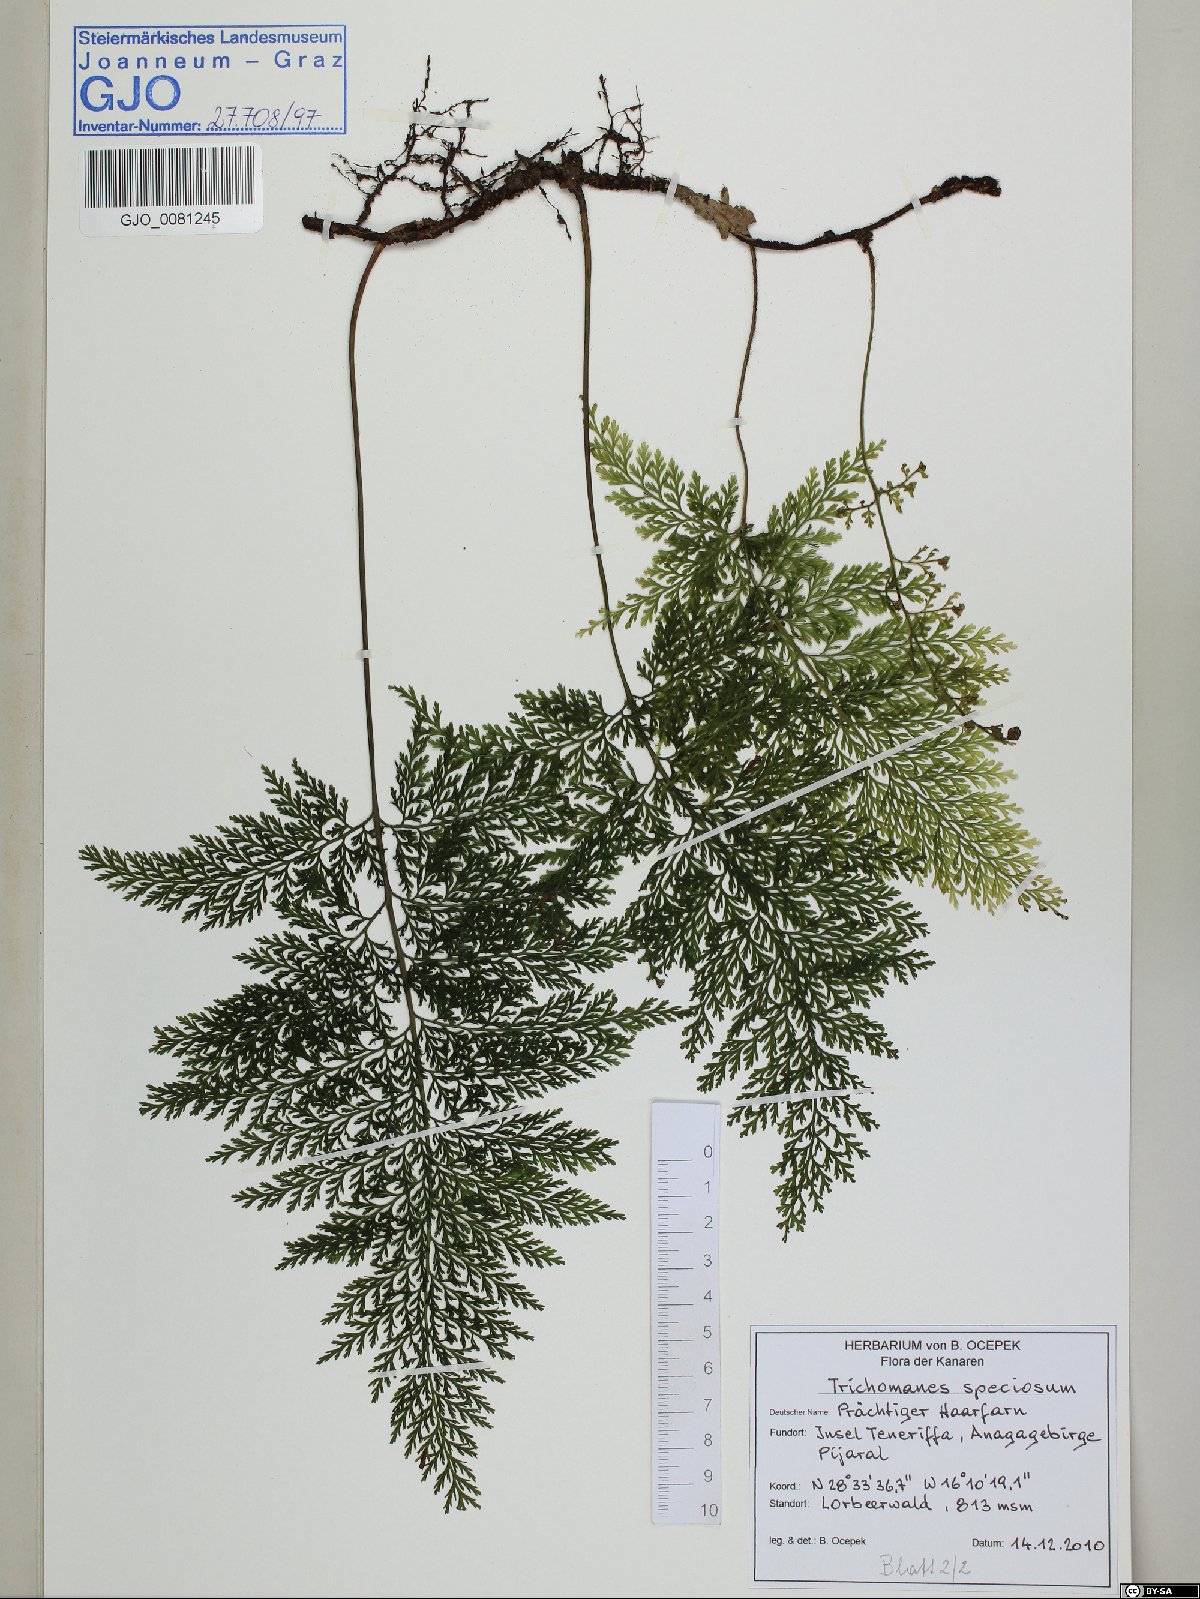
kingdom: Plantae
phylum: Tracheophyta
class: Polypodiopsida
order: Hymenophyllales
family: Hymenophyllaceae
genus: Vandenboschia
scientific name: Vandenboschia speciosa
